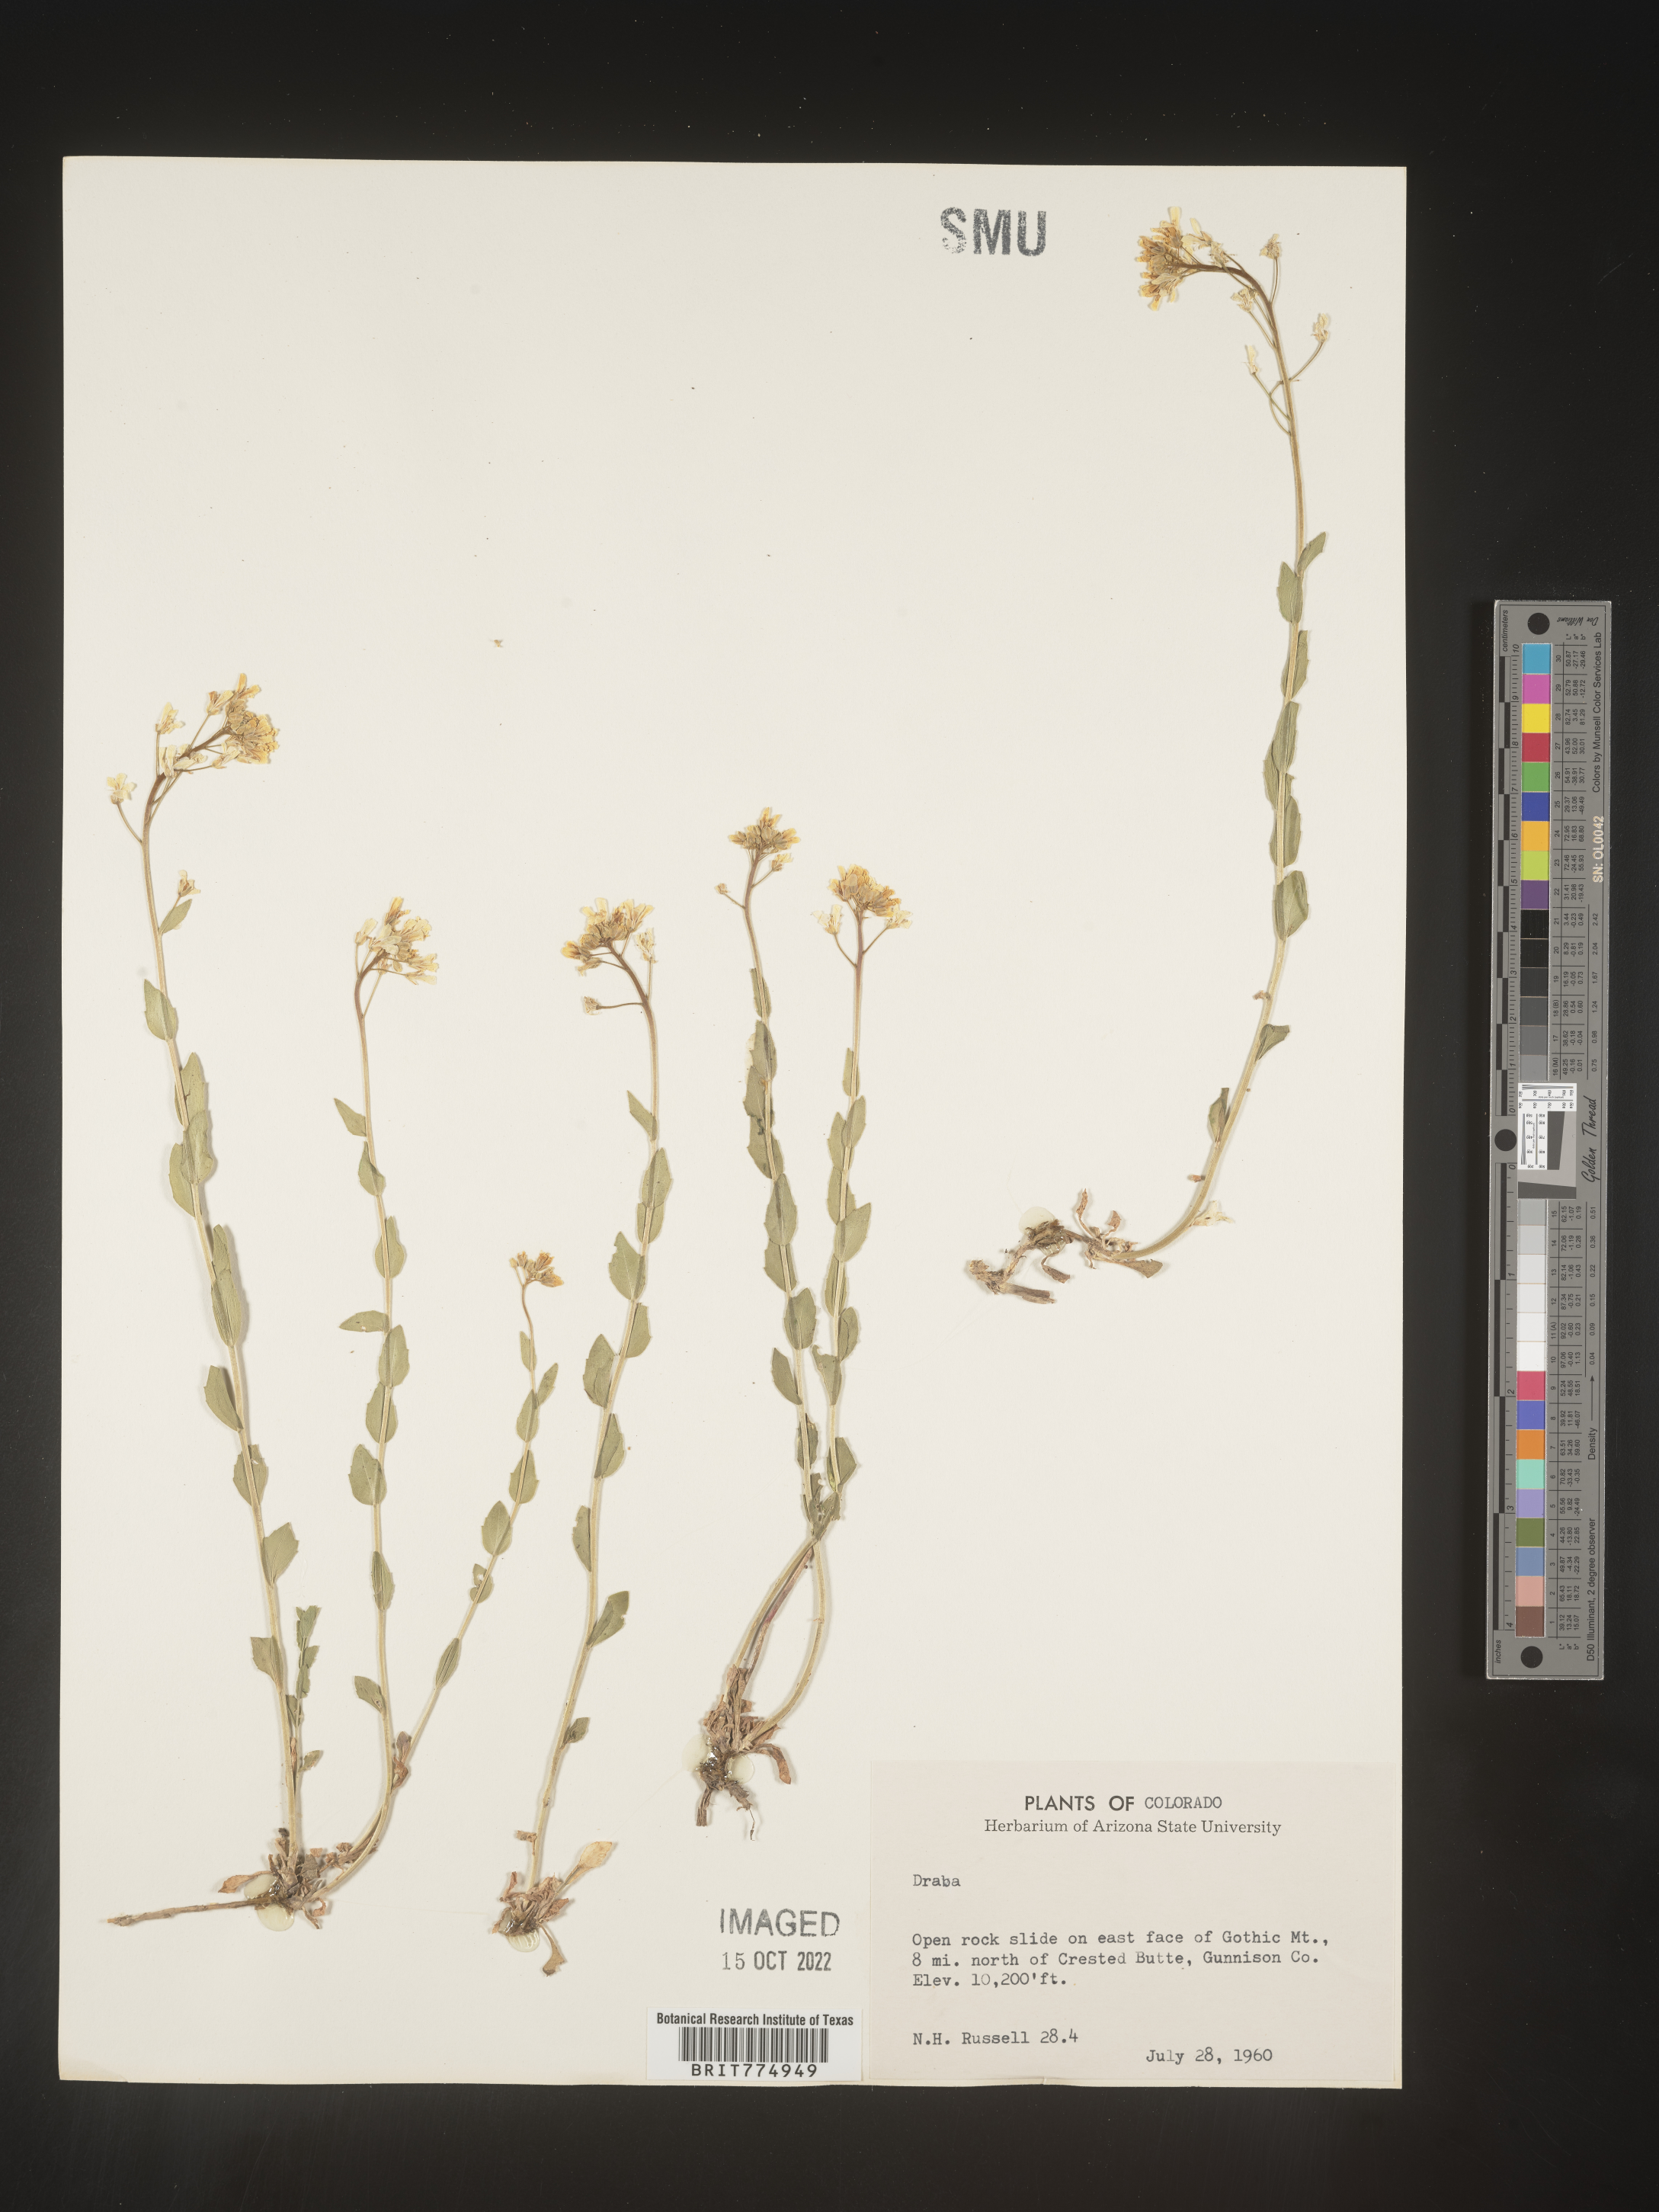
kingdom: Plantae
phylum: Tracheophyta
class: Magnoliopsida
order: Brassicales
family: Brassicaceae
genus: Draba
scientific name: Draba
